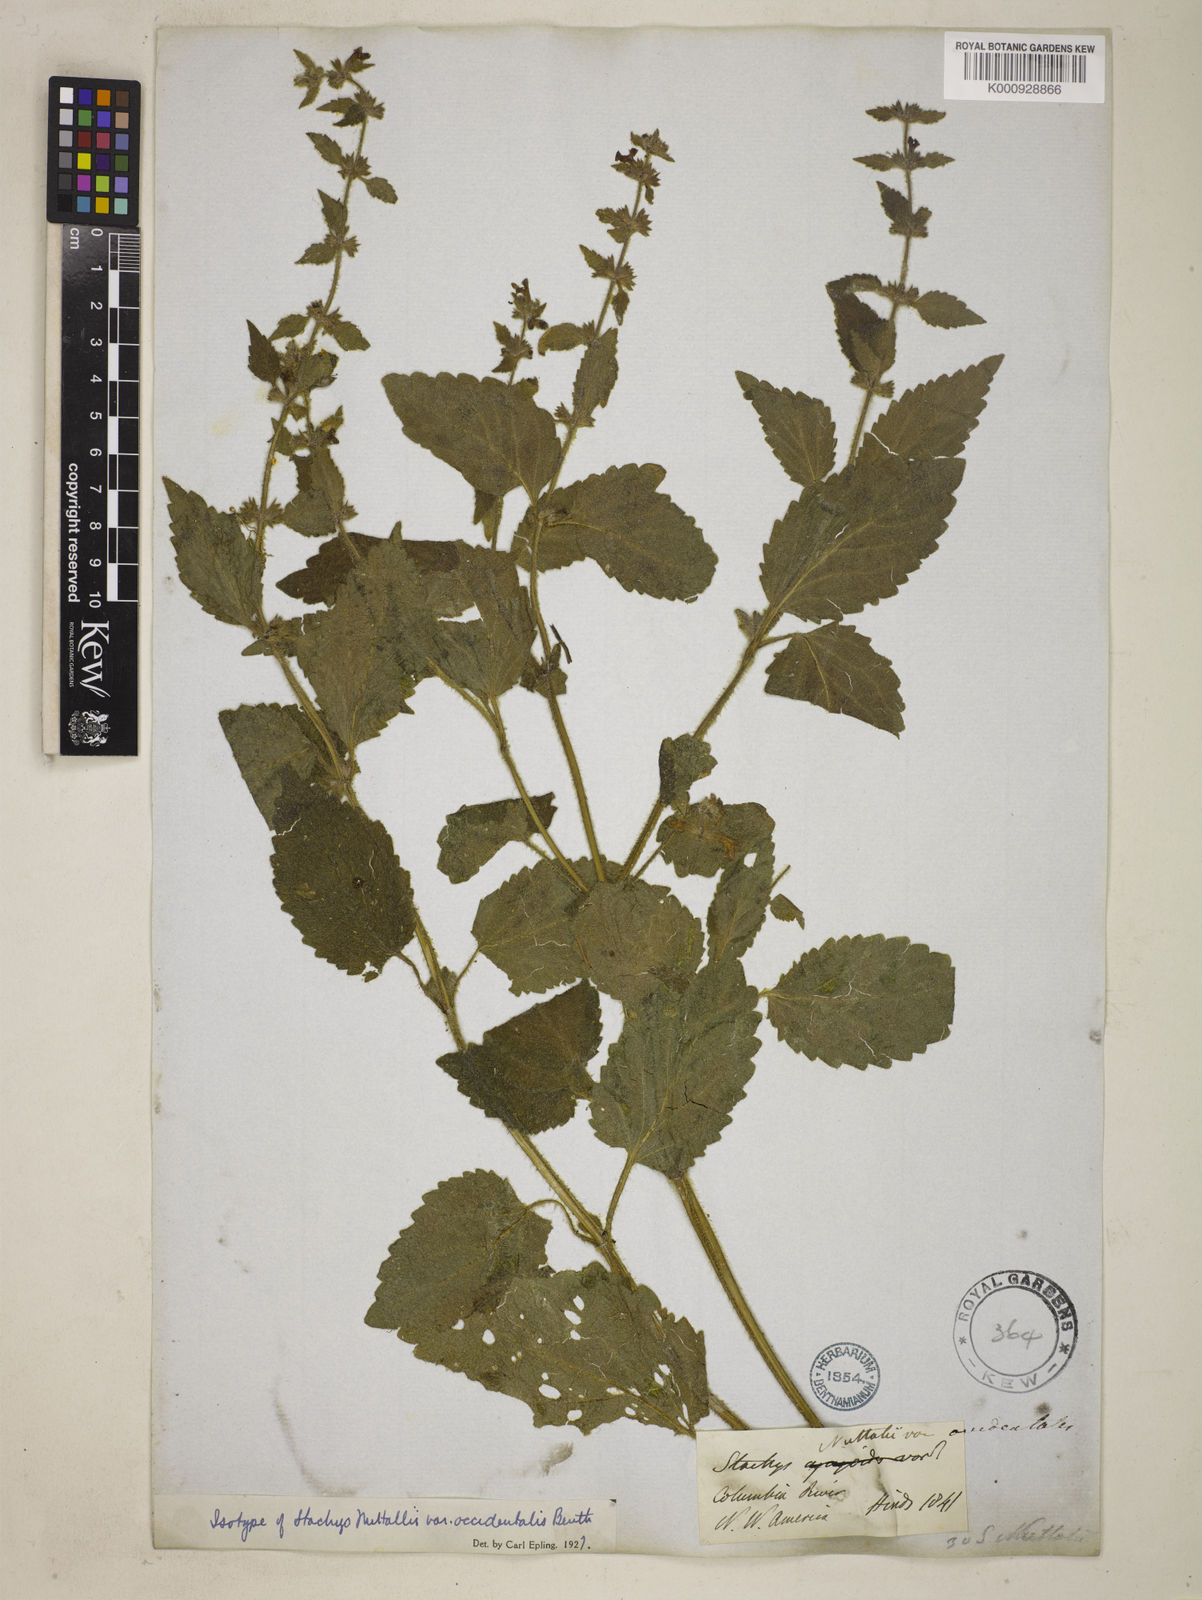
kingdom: Plantae
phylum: Tracheophyta
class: Magnoliopsida
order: Lamiales
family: Lamiaceae
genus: Stachys
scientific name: Stachys cordata
